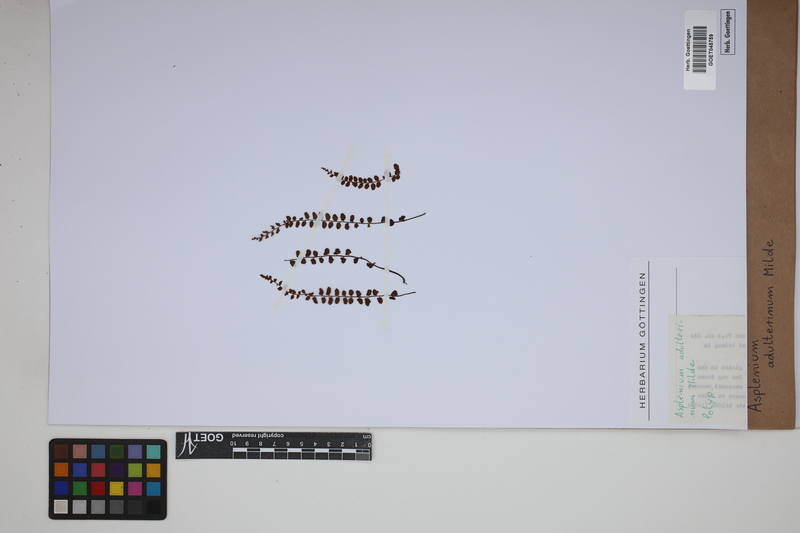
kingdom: Plantae
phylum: Tracheophyta
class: Polypodiopsida
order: Polypodiales
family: Aspleniaceae
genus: Asplenium
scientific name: Asplenium adulterinum
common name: Adulterated spleenwort
